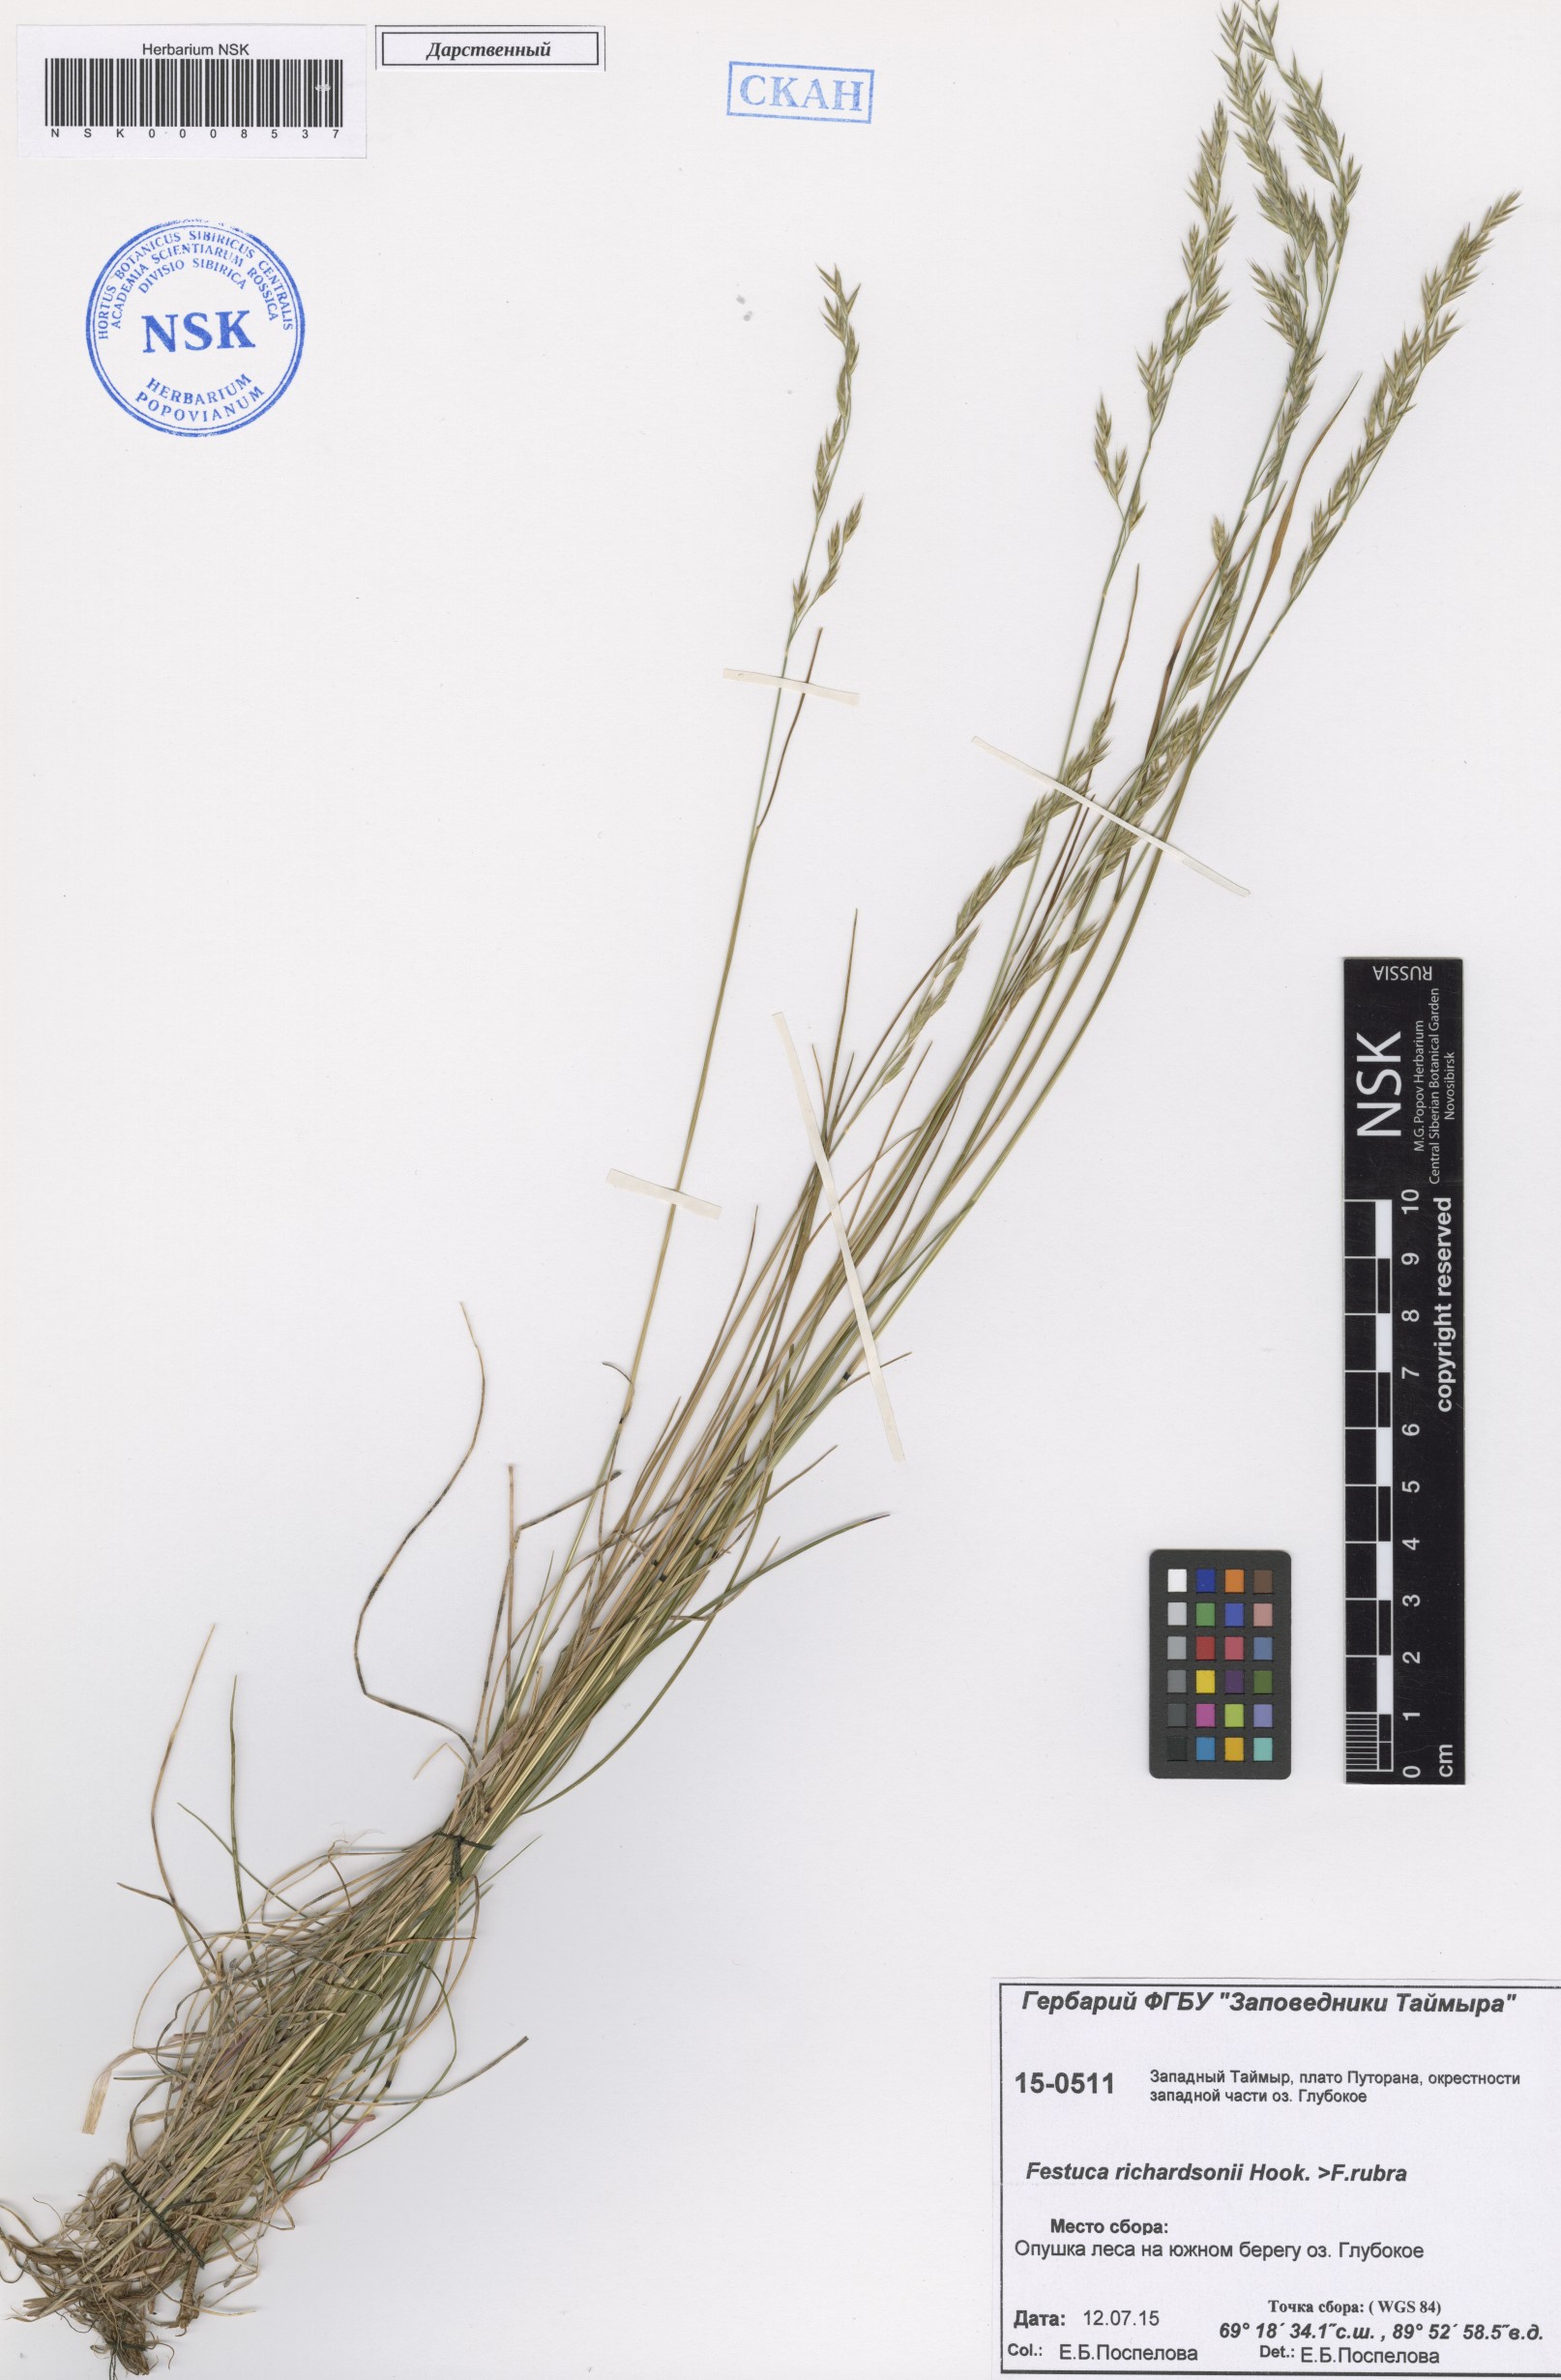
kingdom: Plantae
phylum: Tracheophyta
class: Liliopsida
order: Poales
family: Poaceae
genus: Festuca
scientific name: Festuca richardsonii
